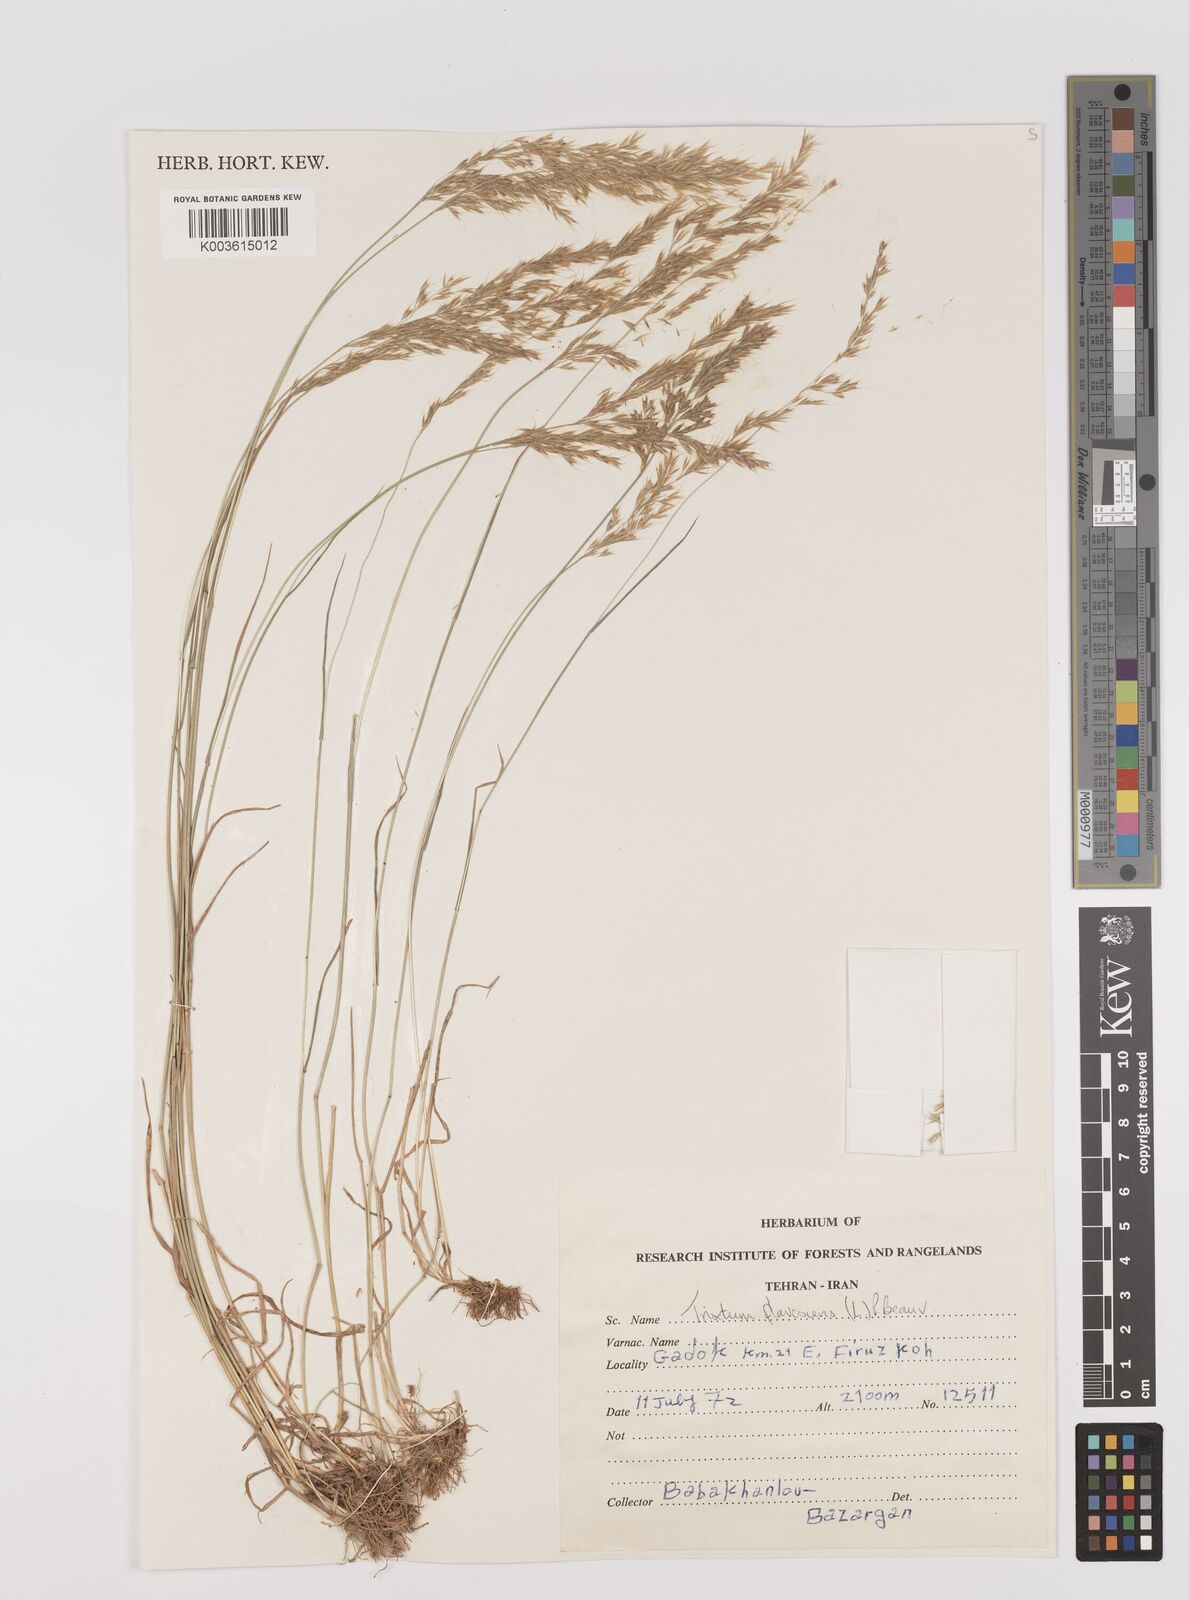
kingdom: Plantae
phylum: Tracheophyta
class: Liliopsida
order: Poales
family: Poaceae
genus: Trisetum
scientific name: Trisetum flavescens
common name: Yellow oat-grass
